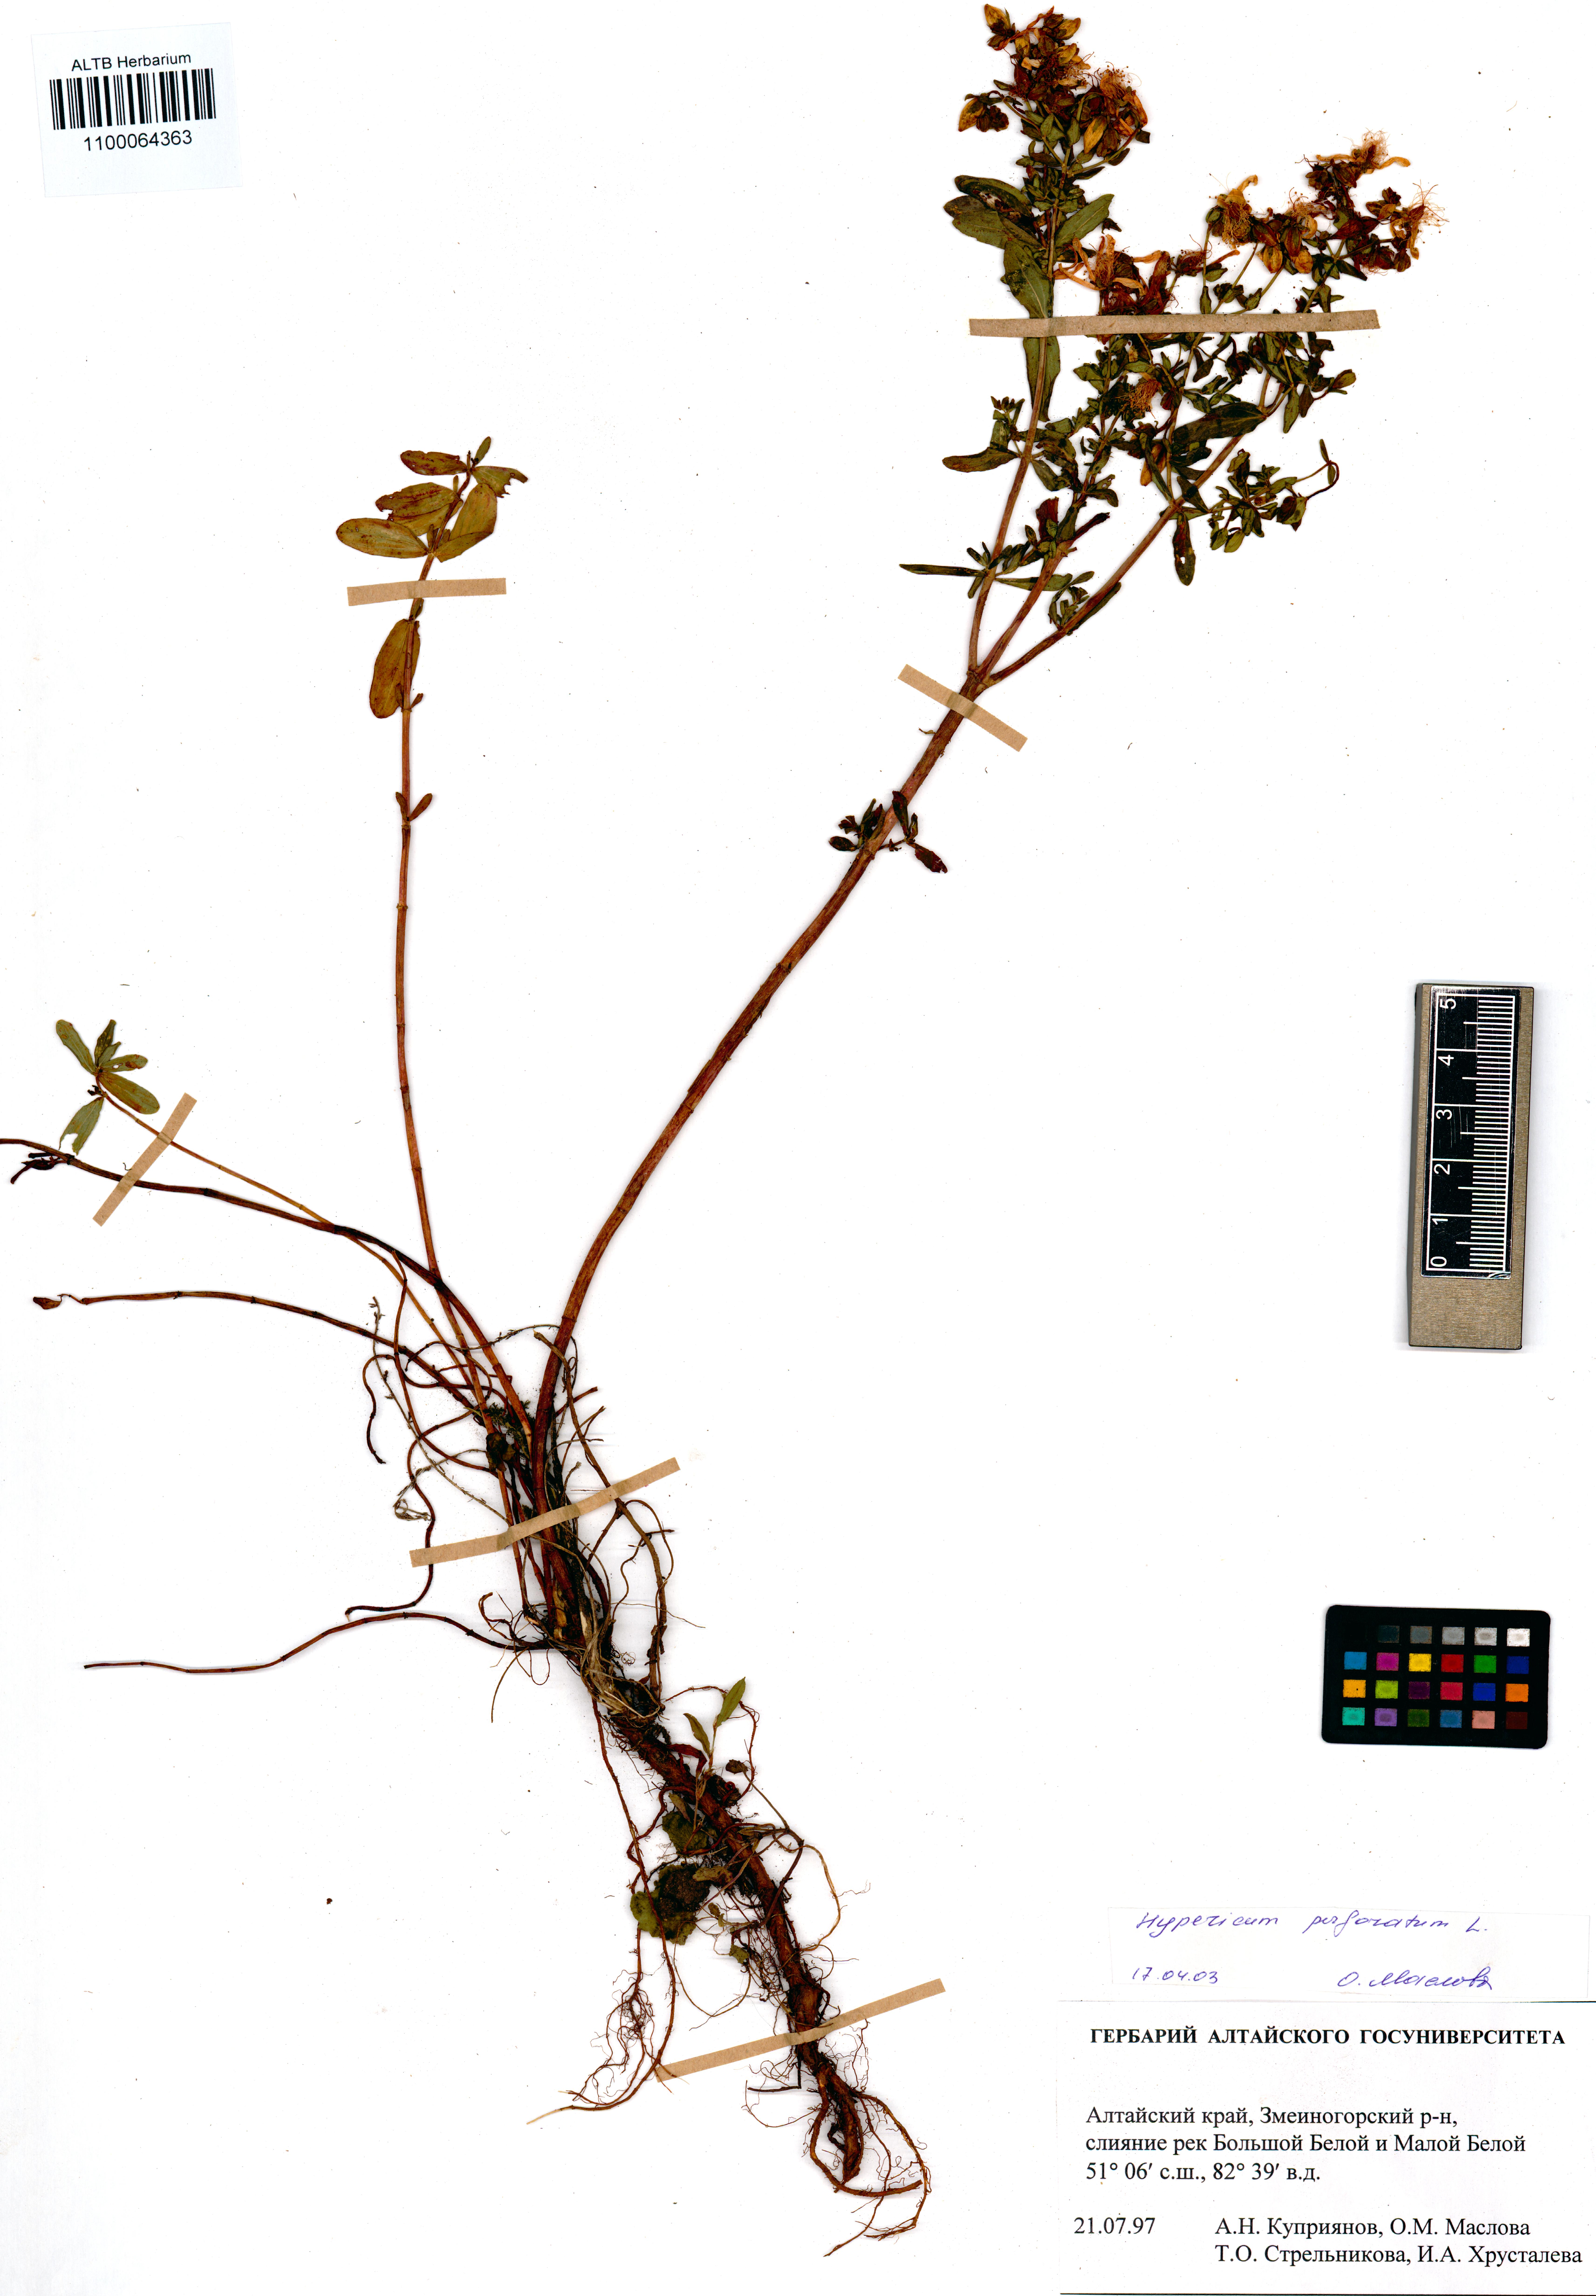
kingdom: Plantae
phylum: Tracheophyta
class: Magnoliopsida
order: Malpighiales
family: Hypericaceae
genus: Hypericum
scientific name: Hypericum perforatum
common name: Common st. johnswort
